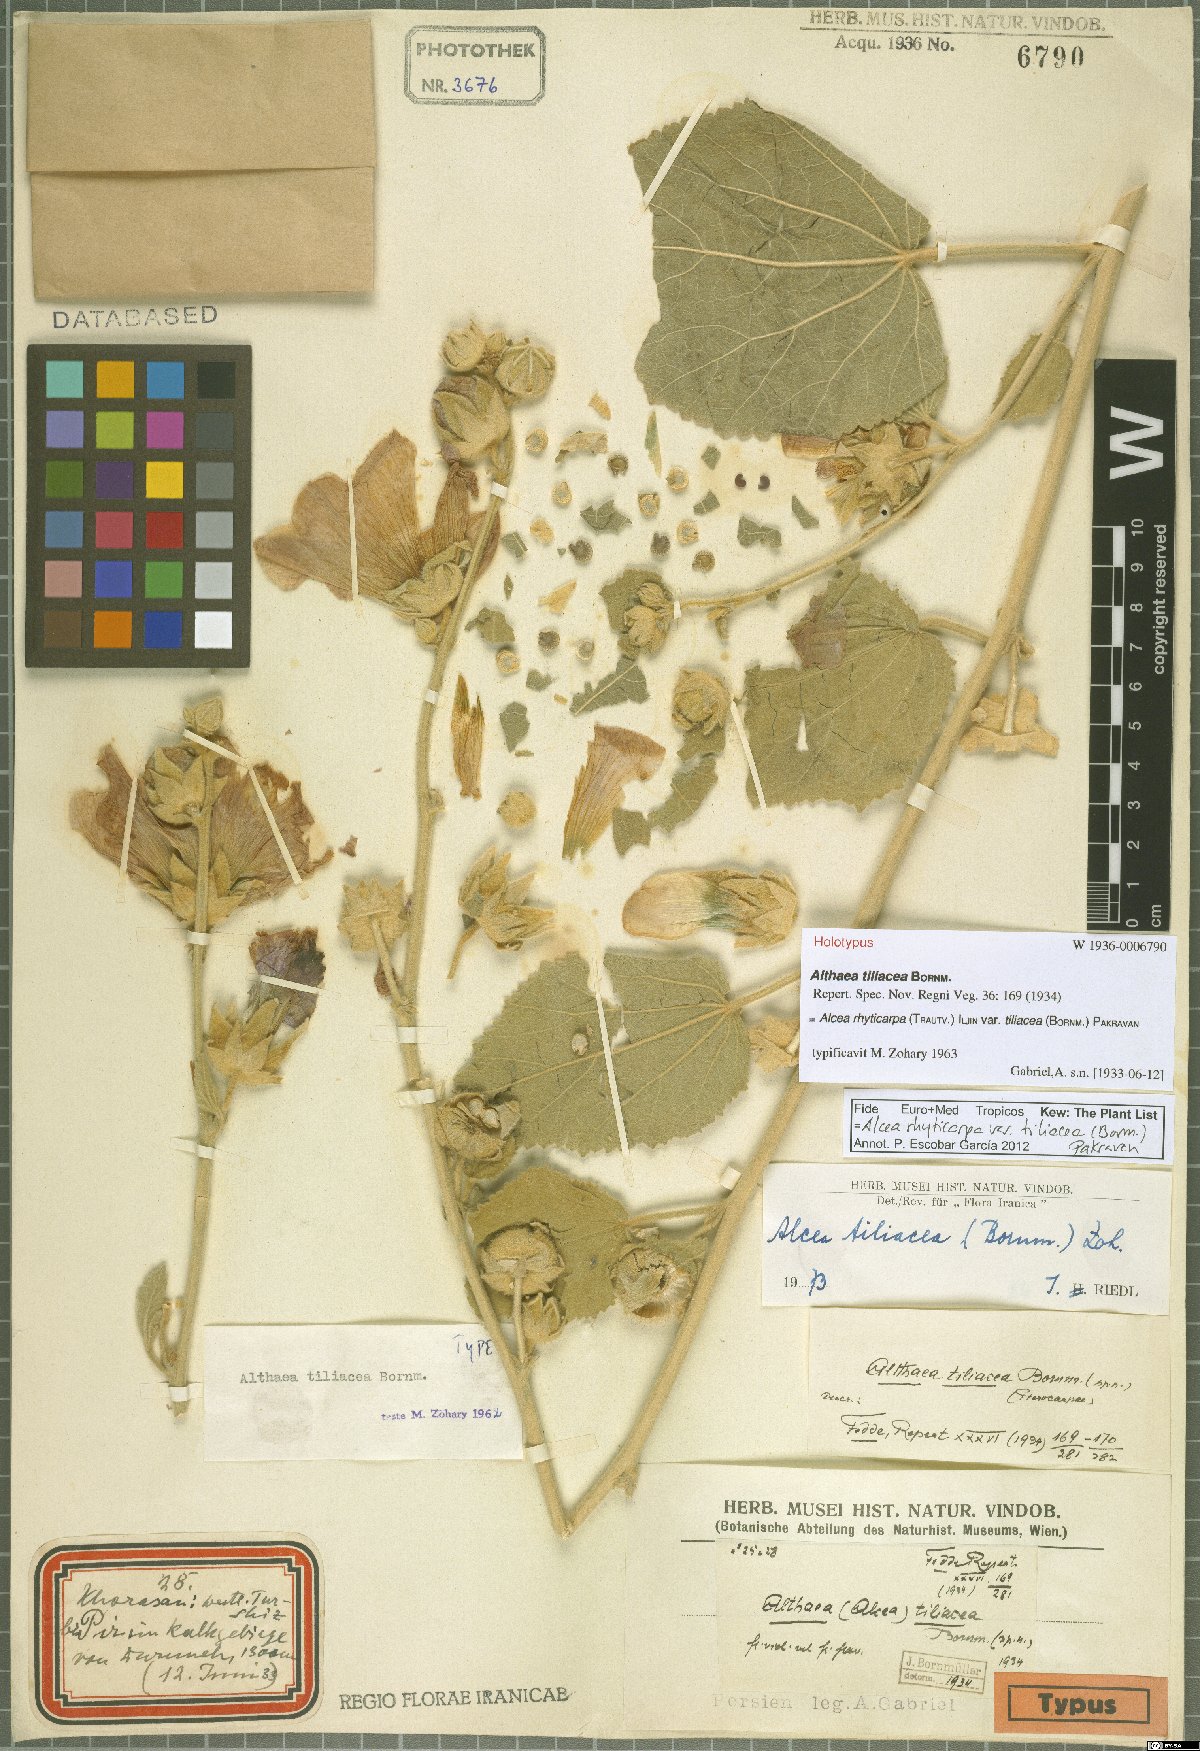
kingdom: Plantae
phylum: Tracheophyta
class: Magnoliopsida
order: Malvales
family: Malvaceae
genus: Alcea
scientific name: Alcea rhyticarpa
